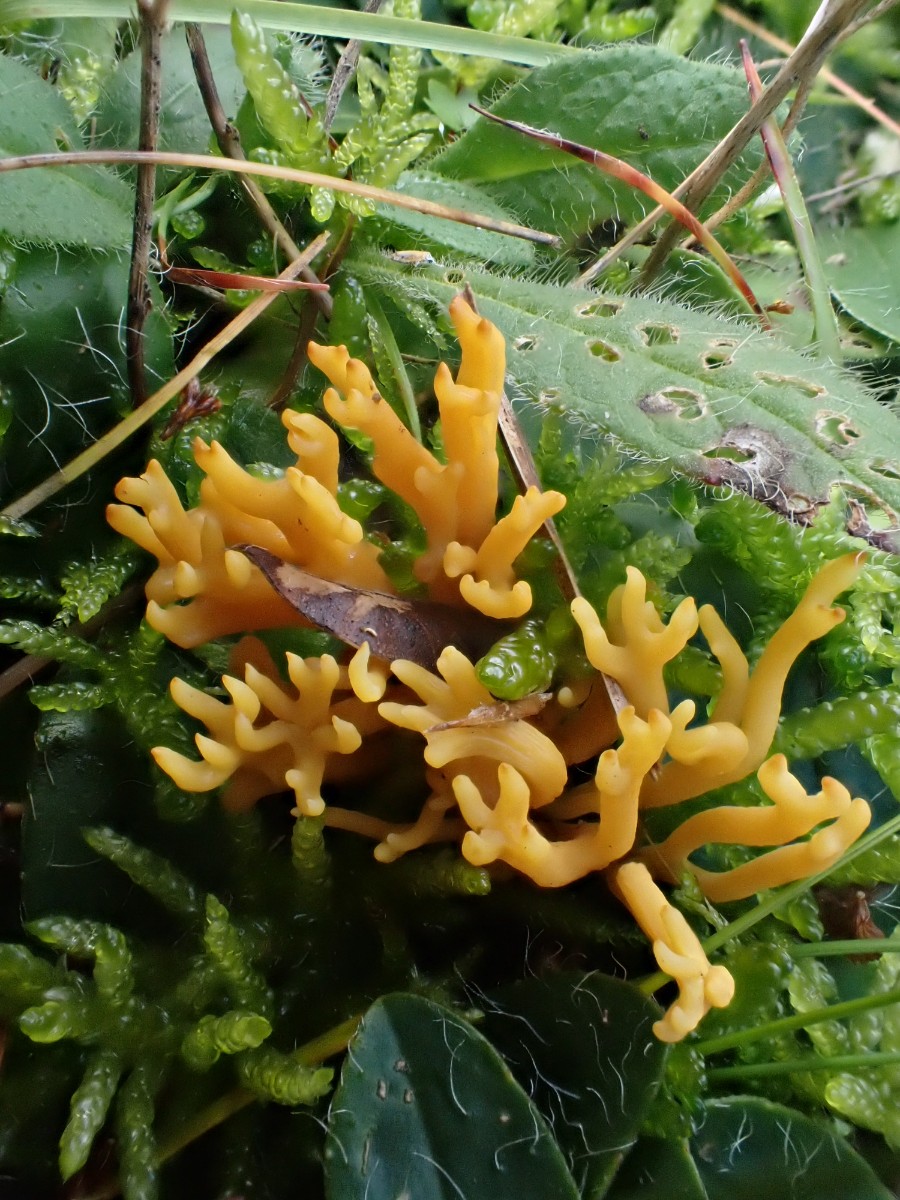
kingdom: Fungi
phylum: Basidiomycota
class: Agaricomycetes
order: Agaricales
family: Clavariaceae
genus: Clavulinopsis
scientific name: Clavulinopsis corniculata
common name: eng-køllesvamp
